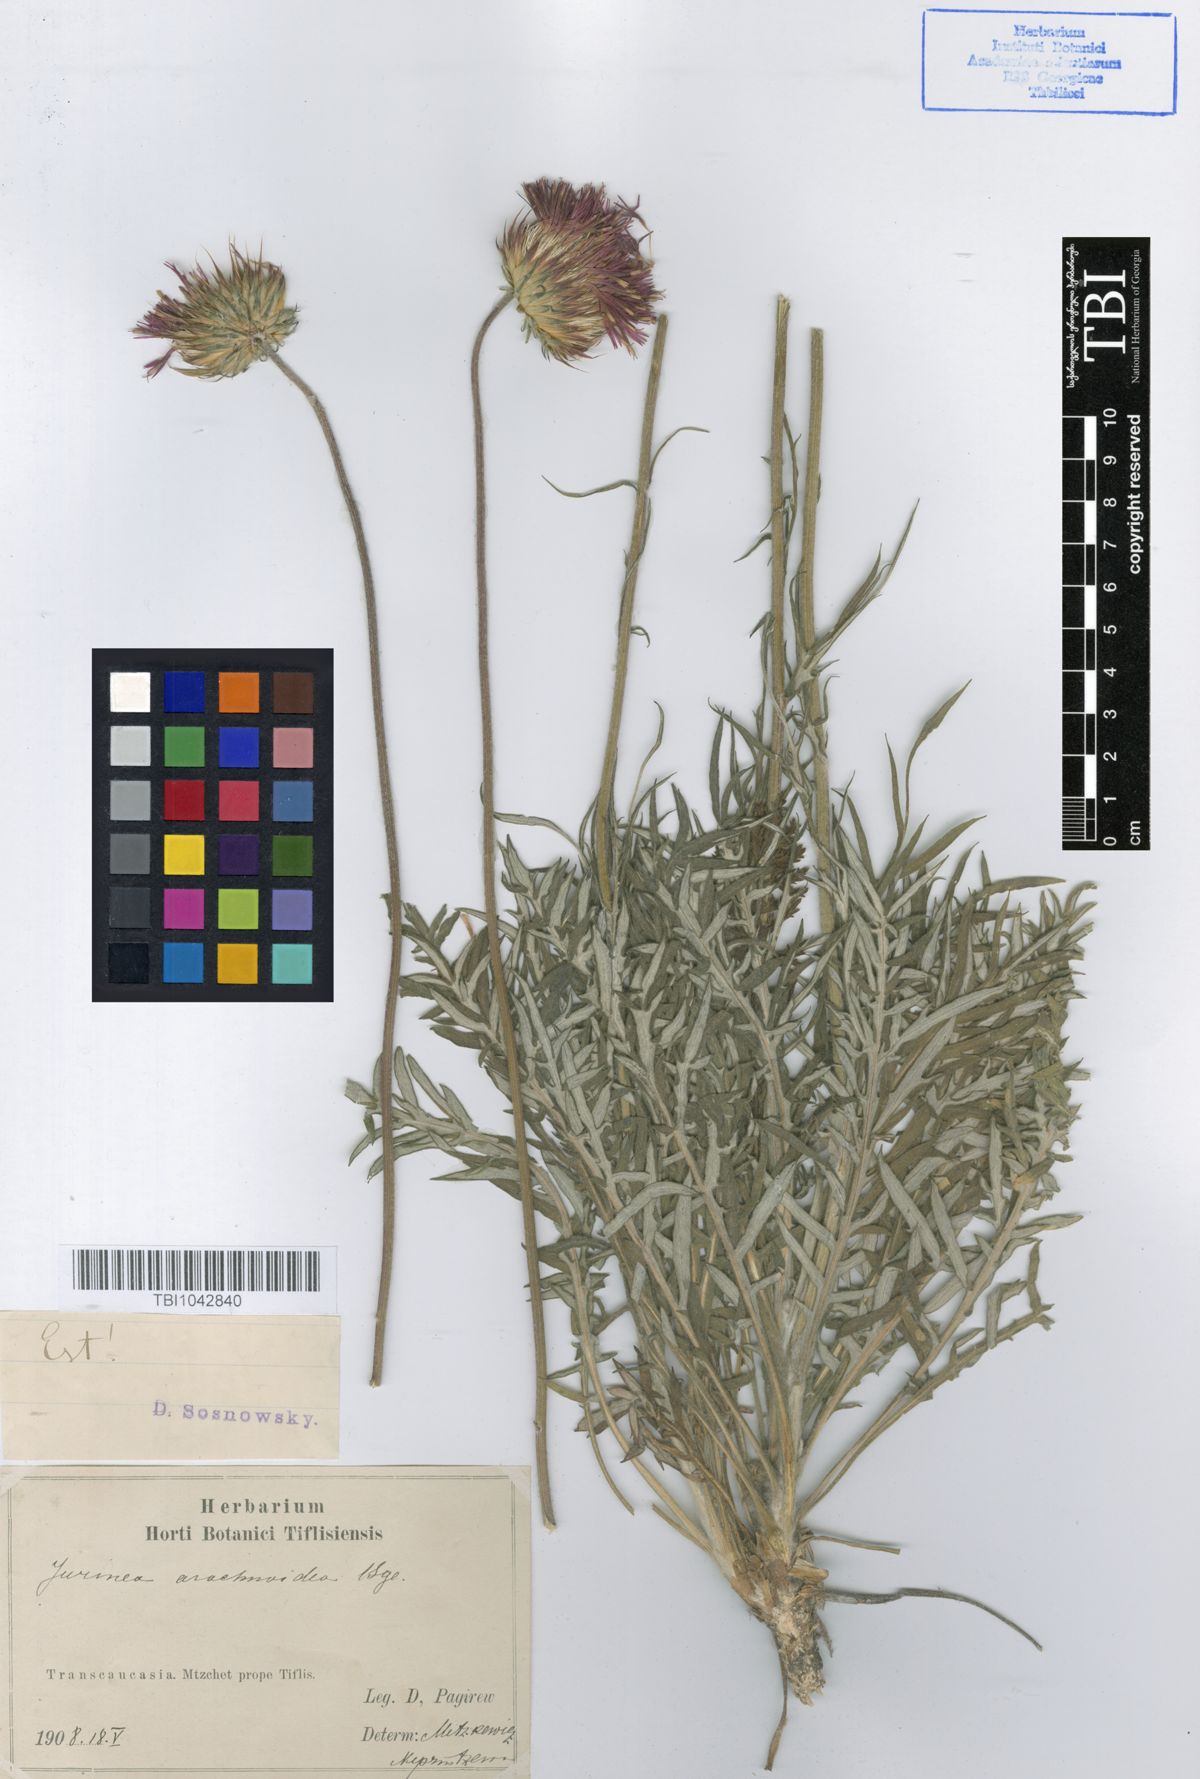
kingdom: Plantae
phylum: Tracheophyta
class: Magnoliopsida
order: Asterales
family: Asteraceae
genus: Jurinea
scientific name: Jurinea blanda
